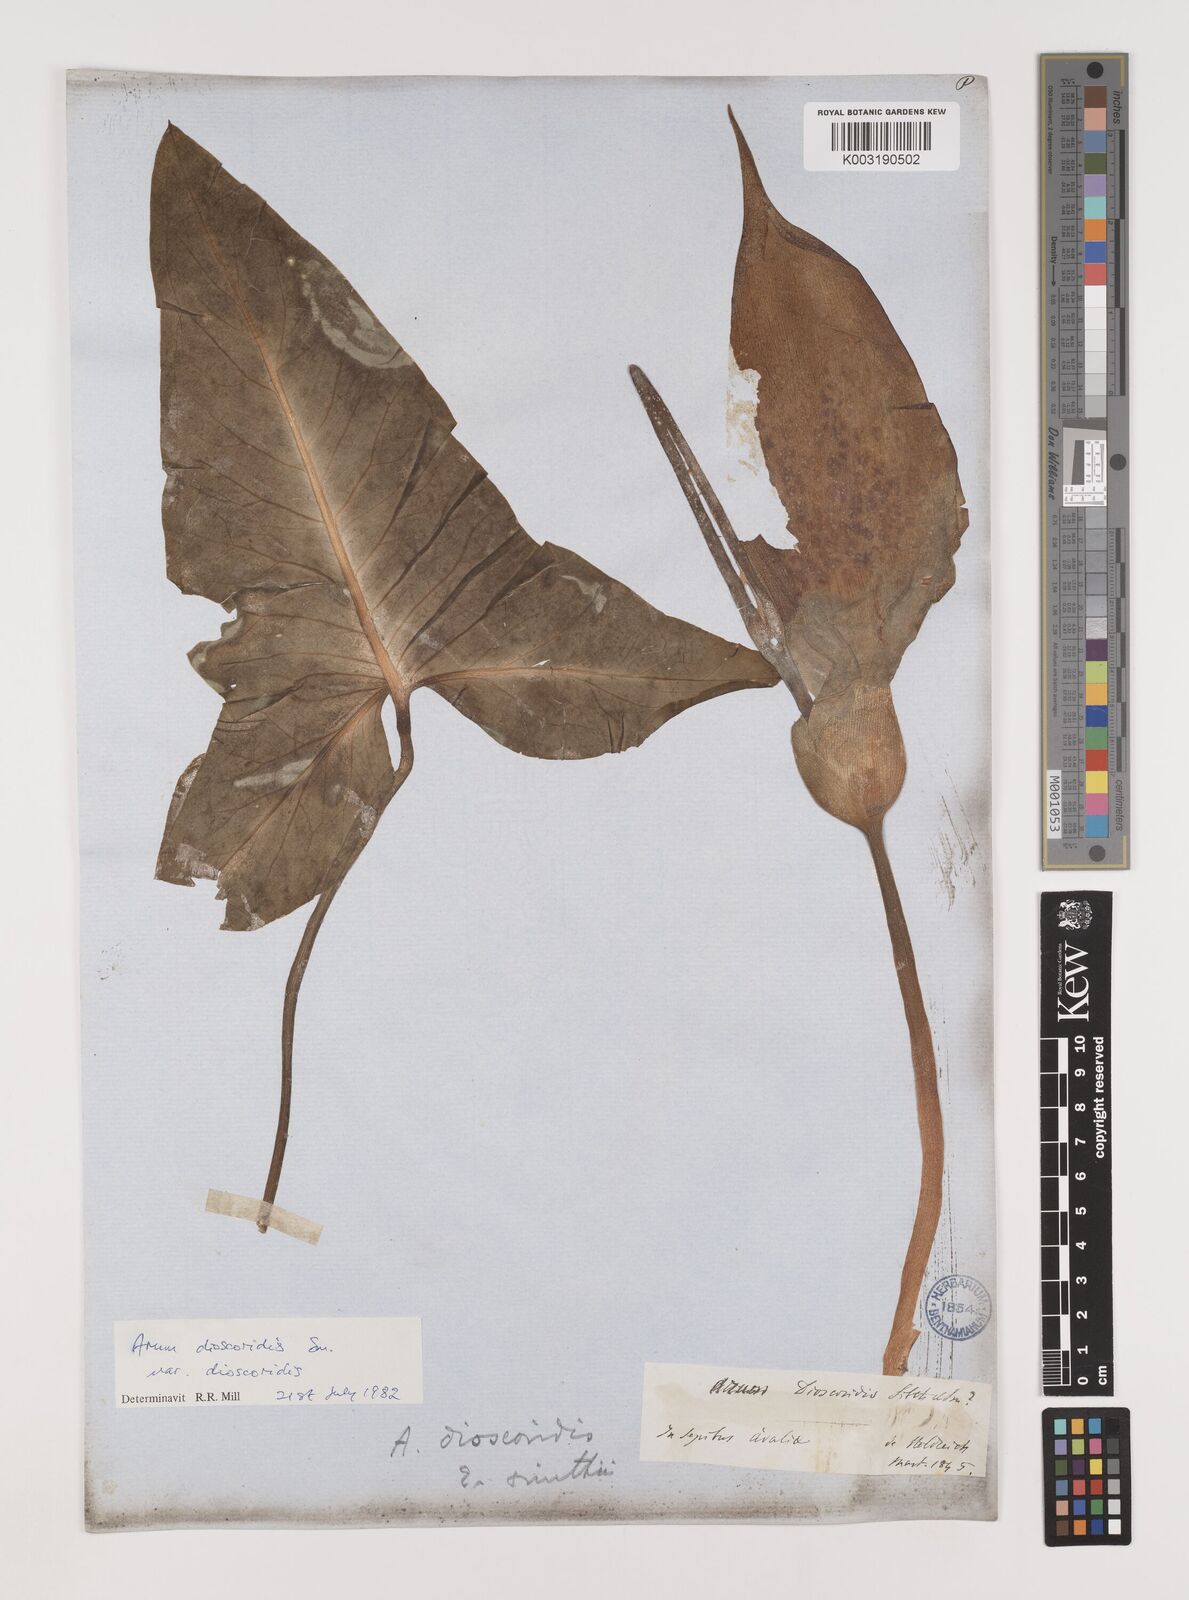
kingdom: Plantae
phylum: Tracheophyta
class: Liliopsida
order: Alismatales
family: Araceae
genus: Arum
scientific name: Arum dioscoridis
